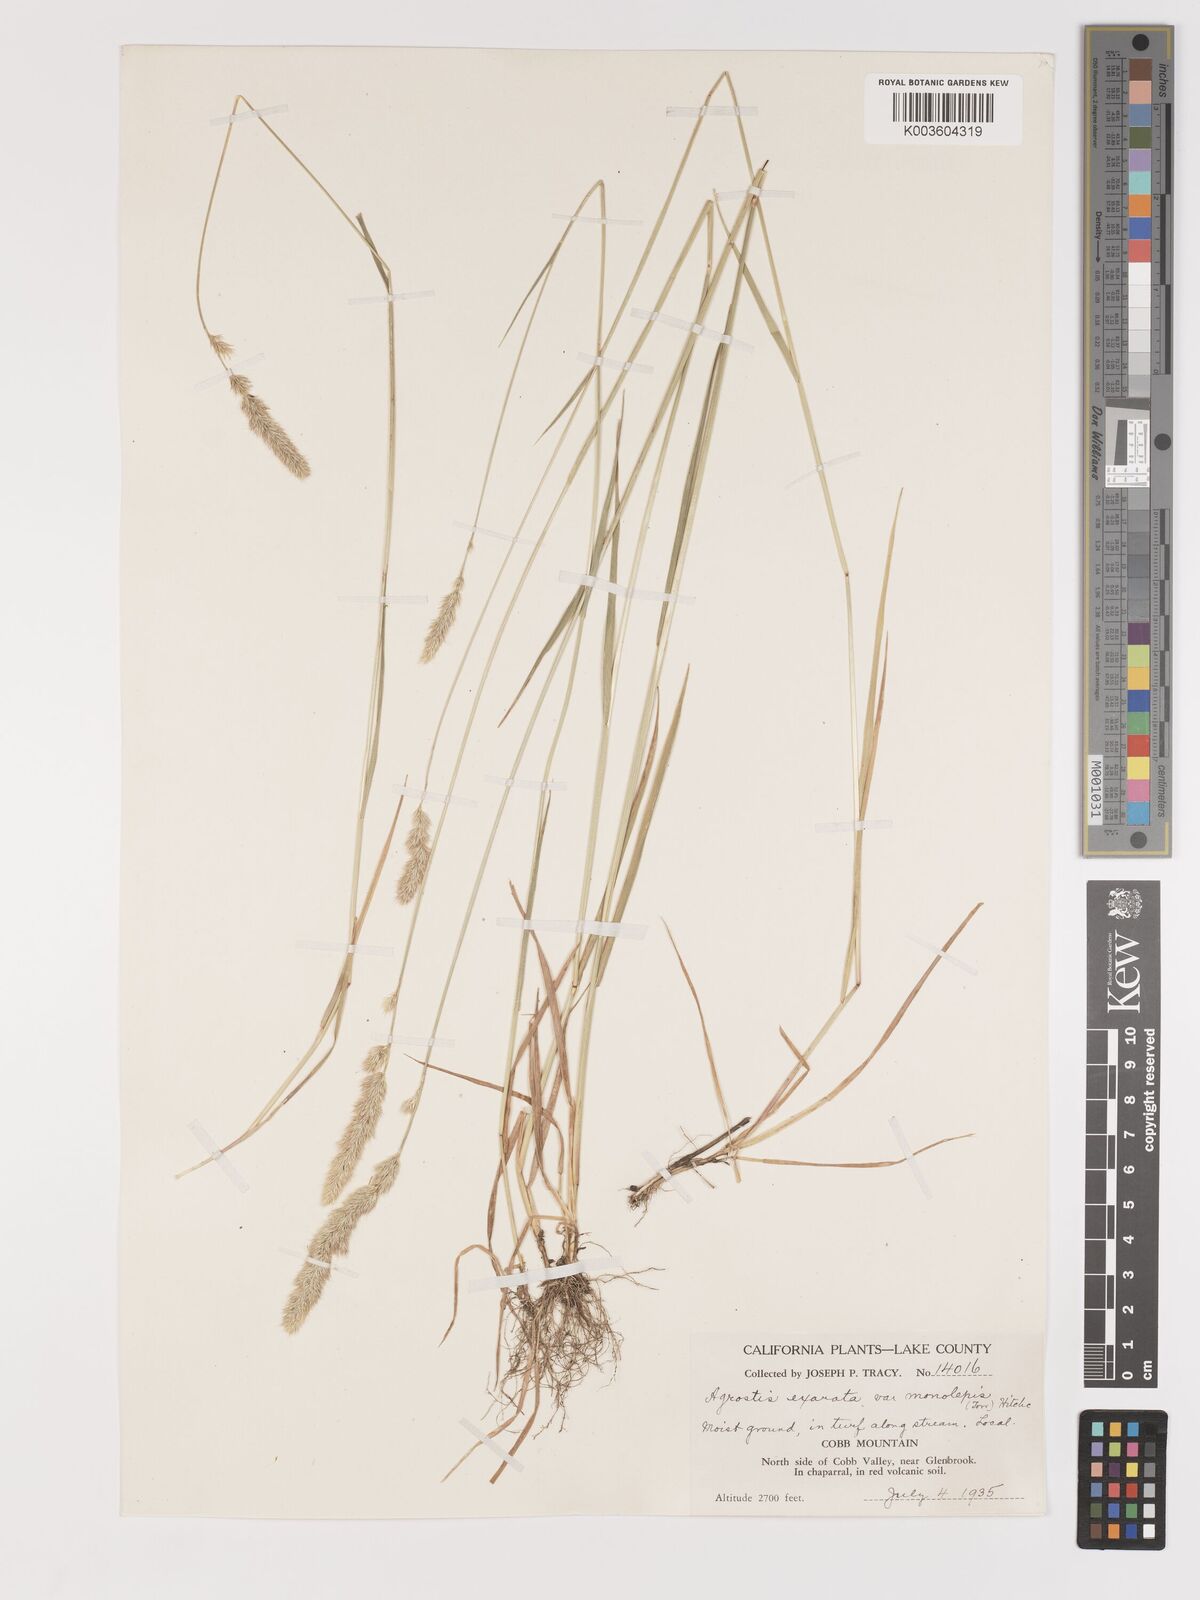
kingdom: Plantae
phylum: Tracheophyta
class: Liliopsida
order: Poales
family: Poaceae
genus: Agrostis
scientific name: Agrostis exarata
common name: Spike bent
